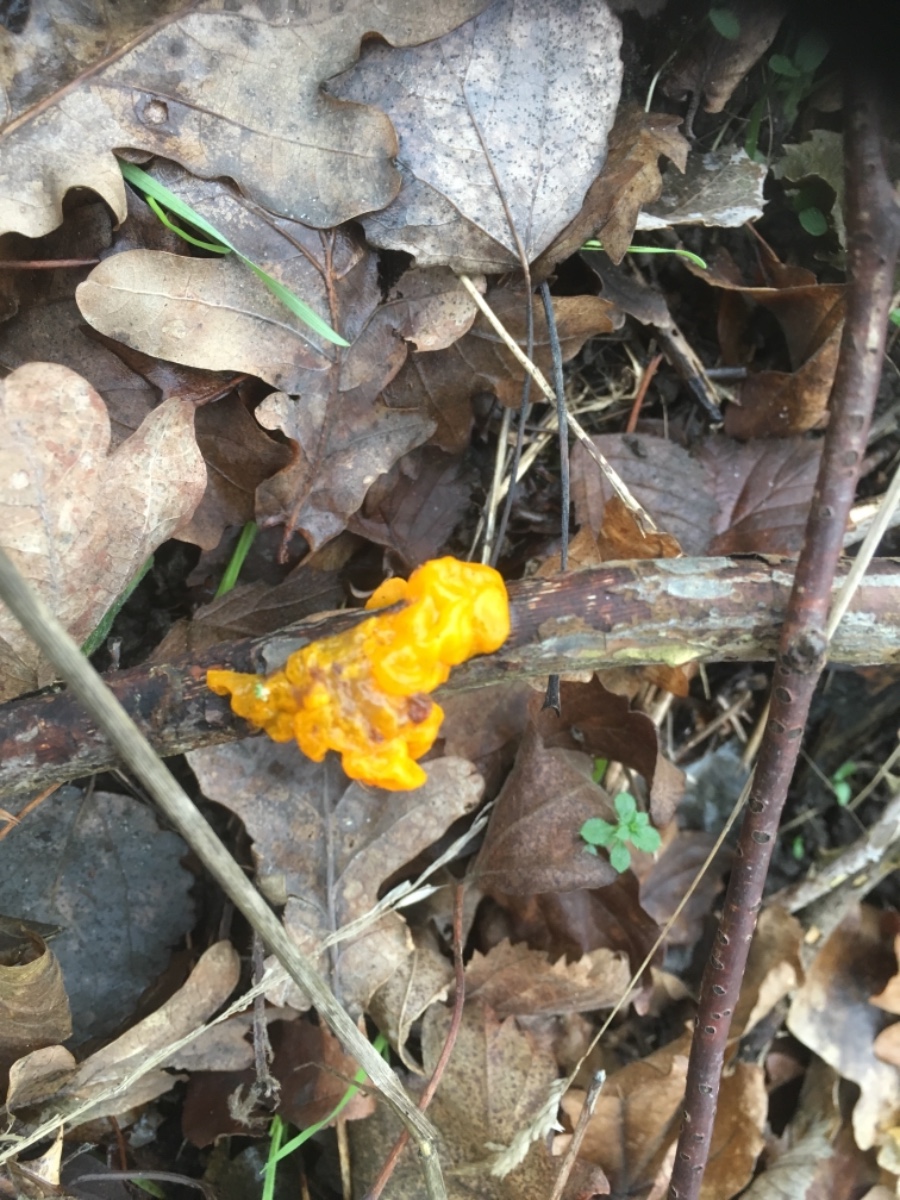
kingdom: Fungi
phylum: Basidiomycota
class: Tremellomycetes
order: Tremellales
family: Tremellaceae
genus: Tremella
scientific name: Tremella mesenterica
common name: gul bævresvamp
